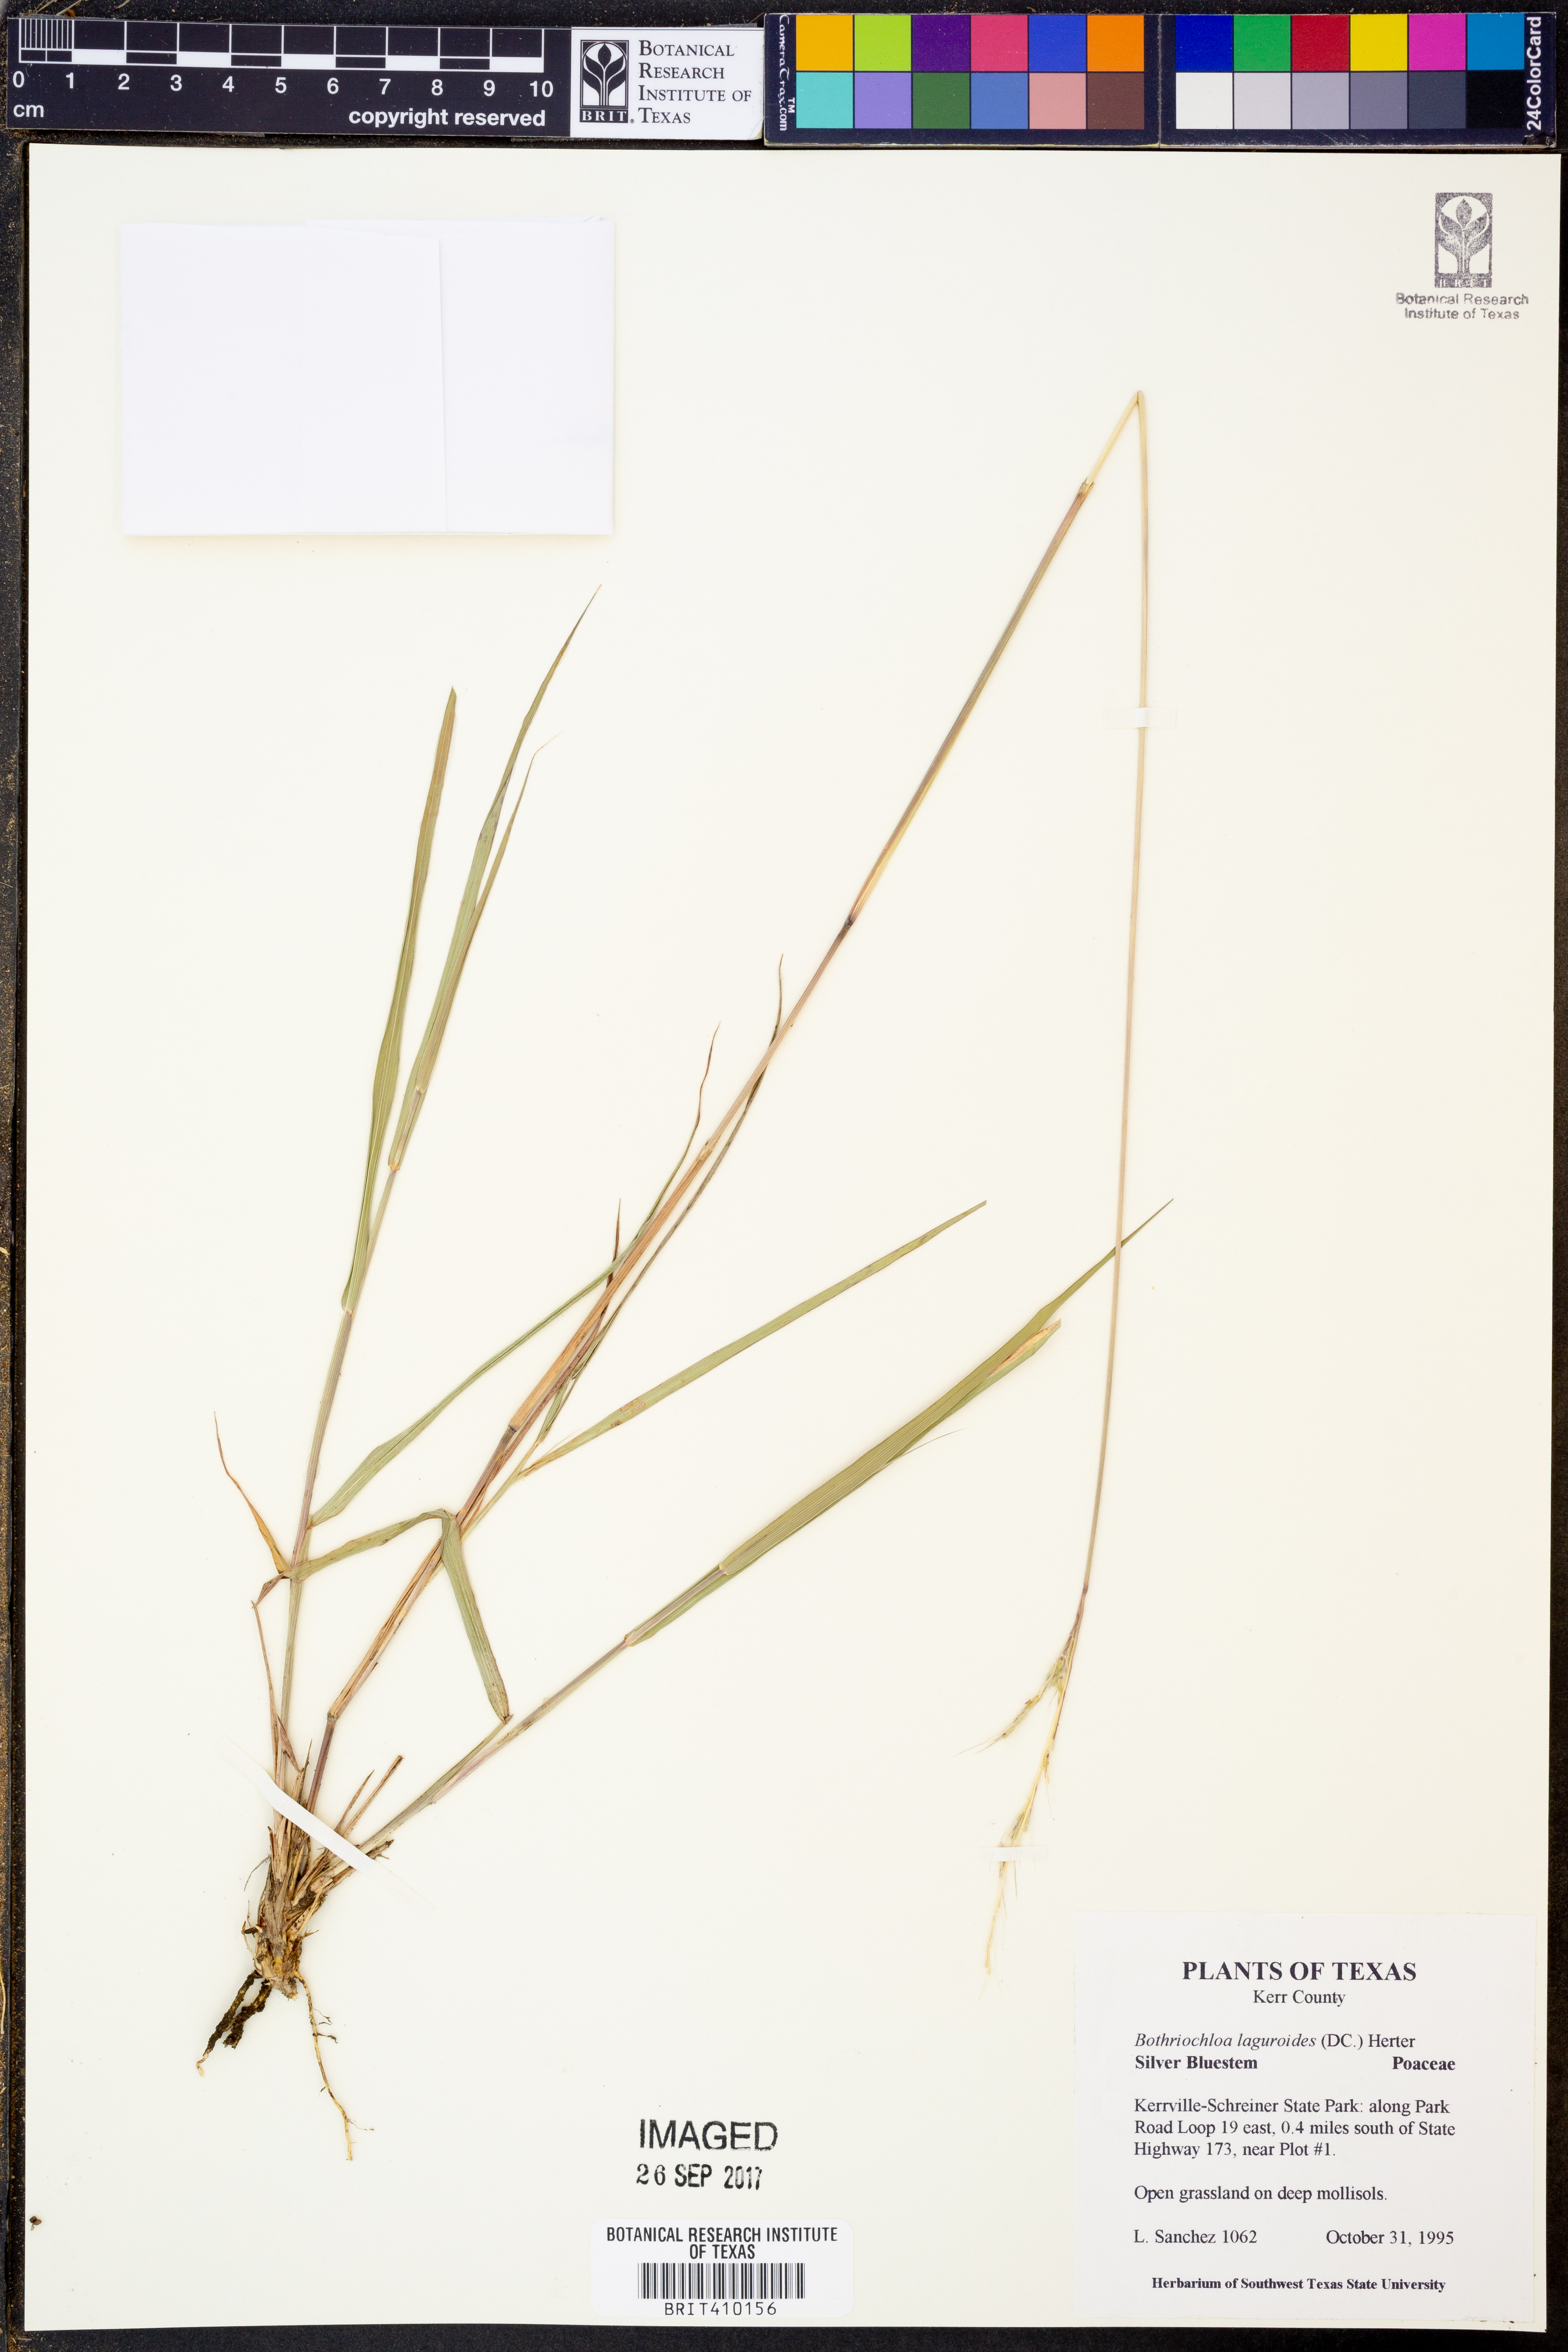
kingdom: Plantae
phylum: Tracheophyta
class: Liliopsida
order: Poales
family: Poaceae
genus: Bothriochloa
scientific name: Bothriochloa laguroides
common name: Silver bluestem
